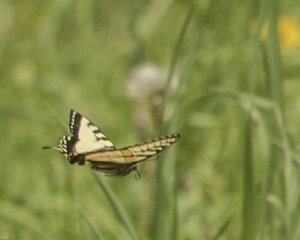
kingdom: Animalia
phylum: Arthropoda
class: Insecta
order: Lepidoptera
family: Papilionidae
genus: Pterourus
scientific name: Pterourus canadensis
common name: Canadian Tiger Swallowtail
